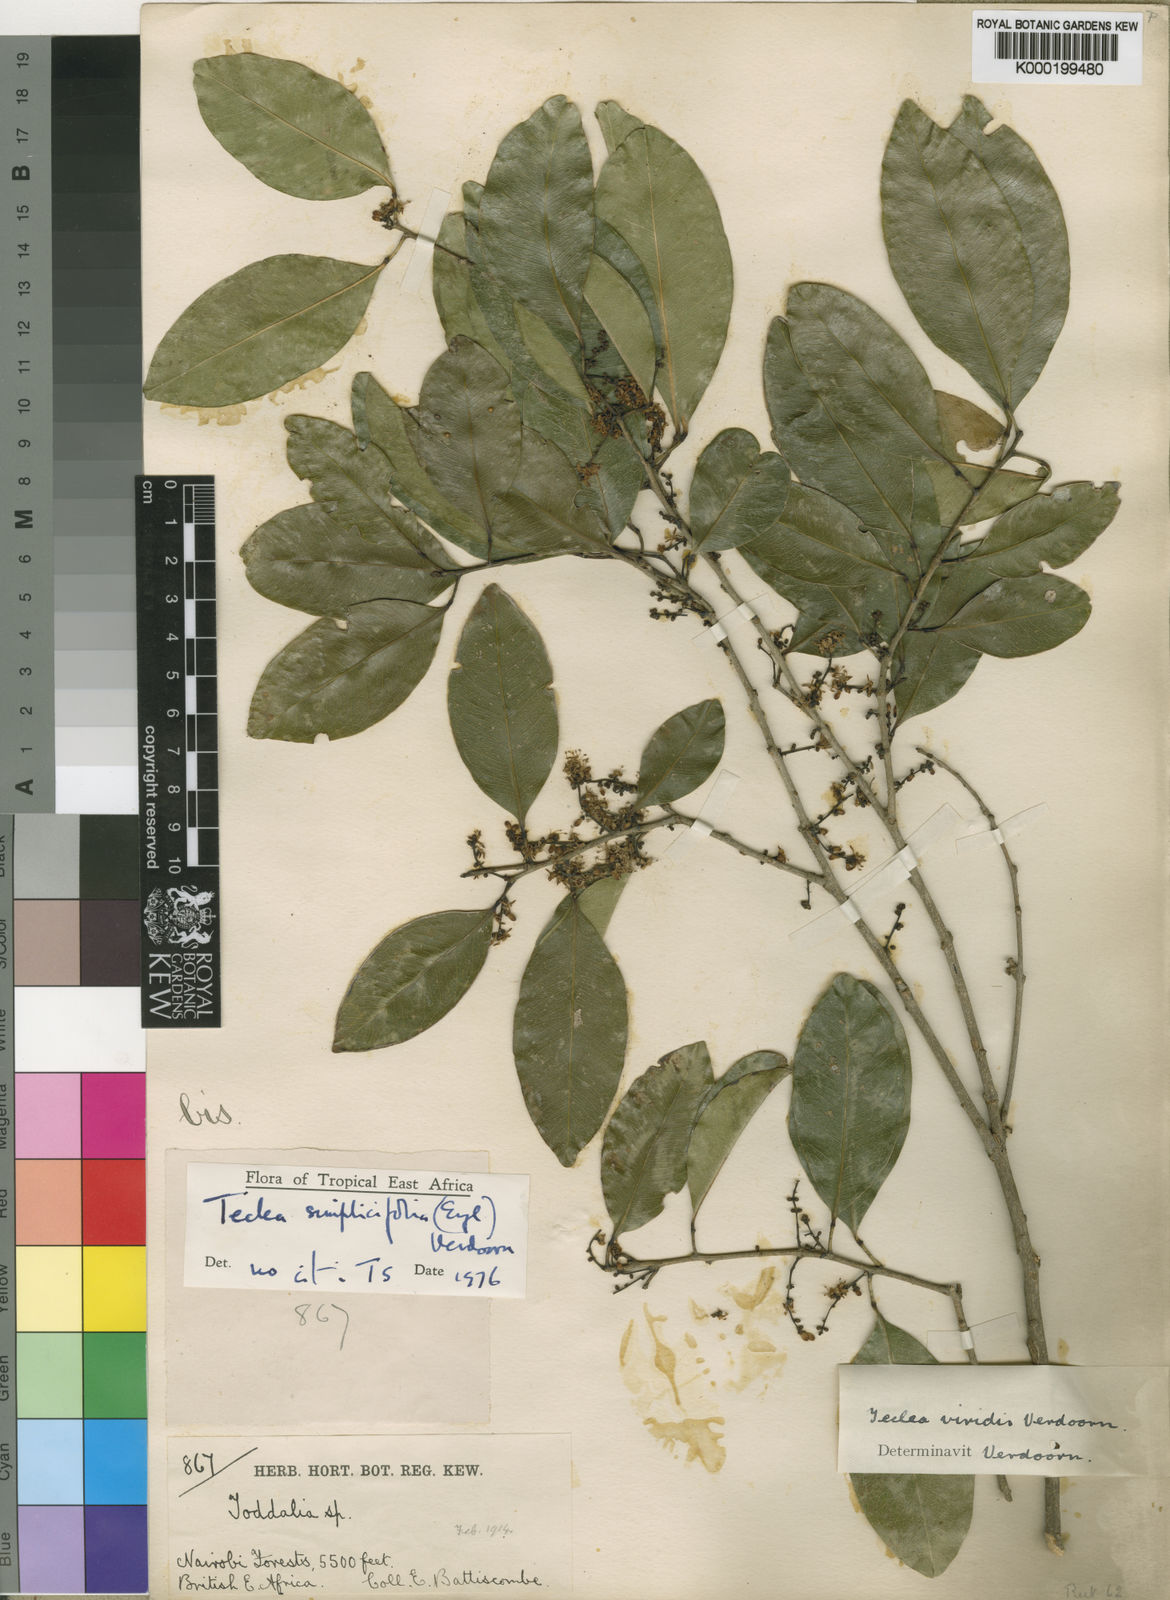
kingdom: Plantae
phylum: Tracheophyta
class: Magnoliopsida
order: Sapindales
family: Rutaceae
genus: Vepris
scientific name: Vepris simplicifolia
